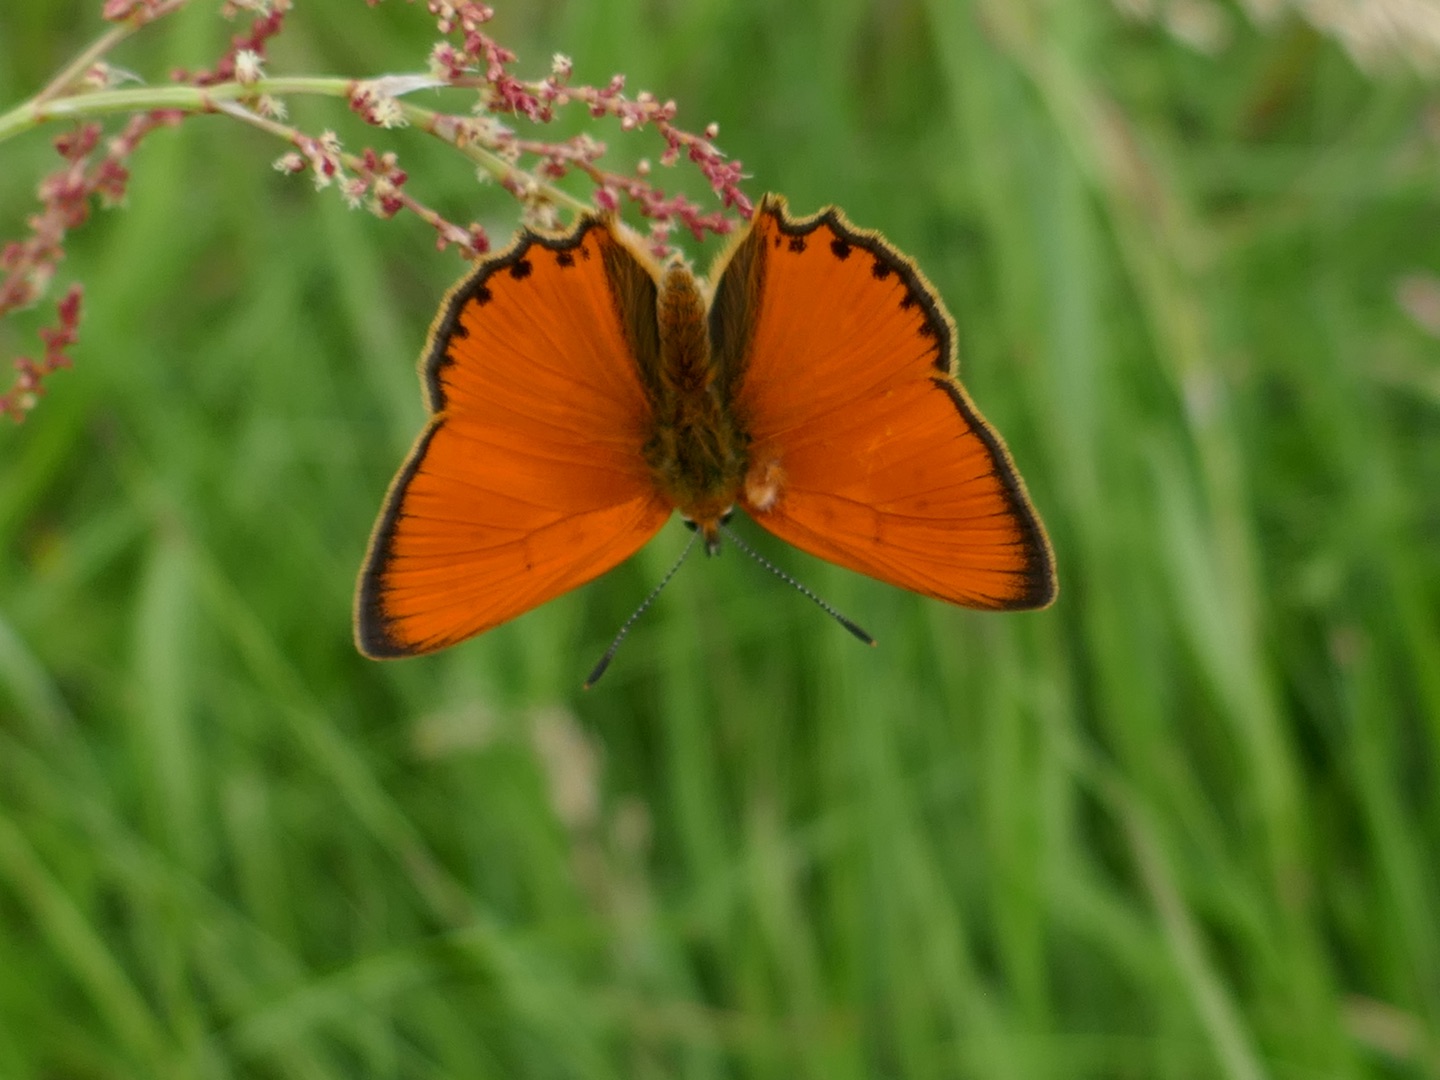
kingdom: Animalia
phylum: Arthropoda
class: Insecta
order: Lepidoptera
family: Lycaenidae
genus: Lycaena
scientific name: Lycaena virgaureae
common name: Dukatsommerfugl
